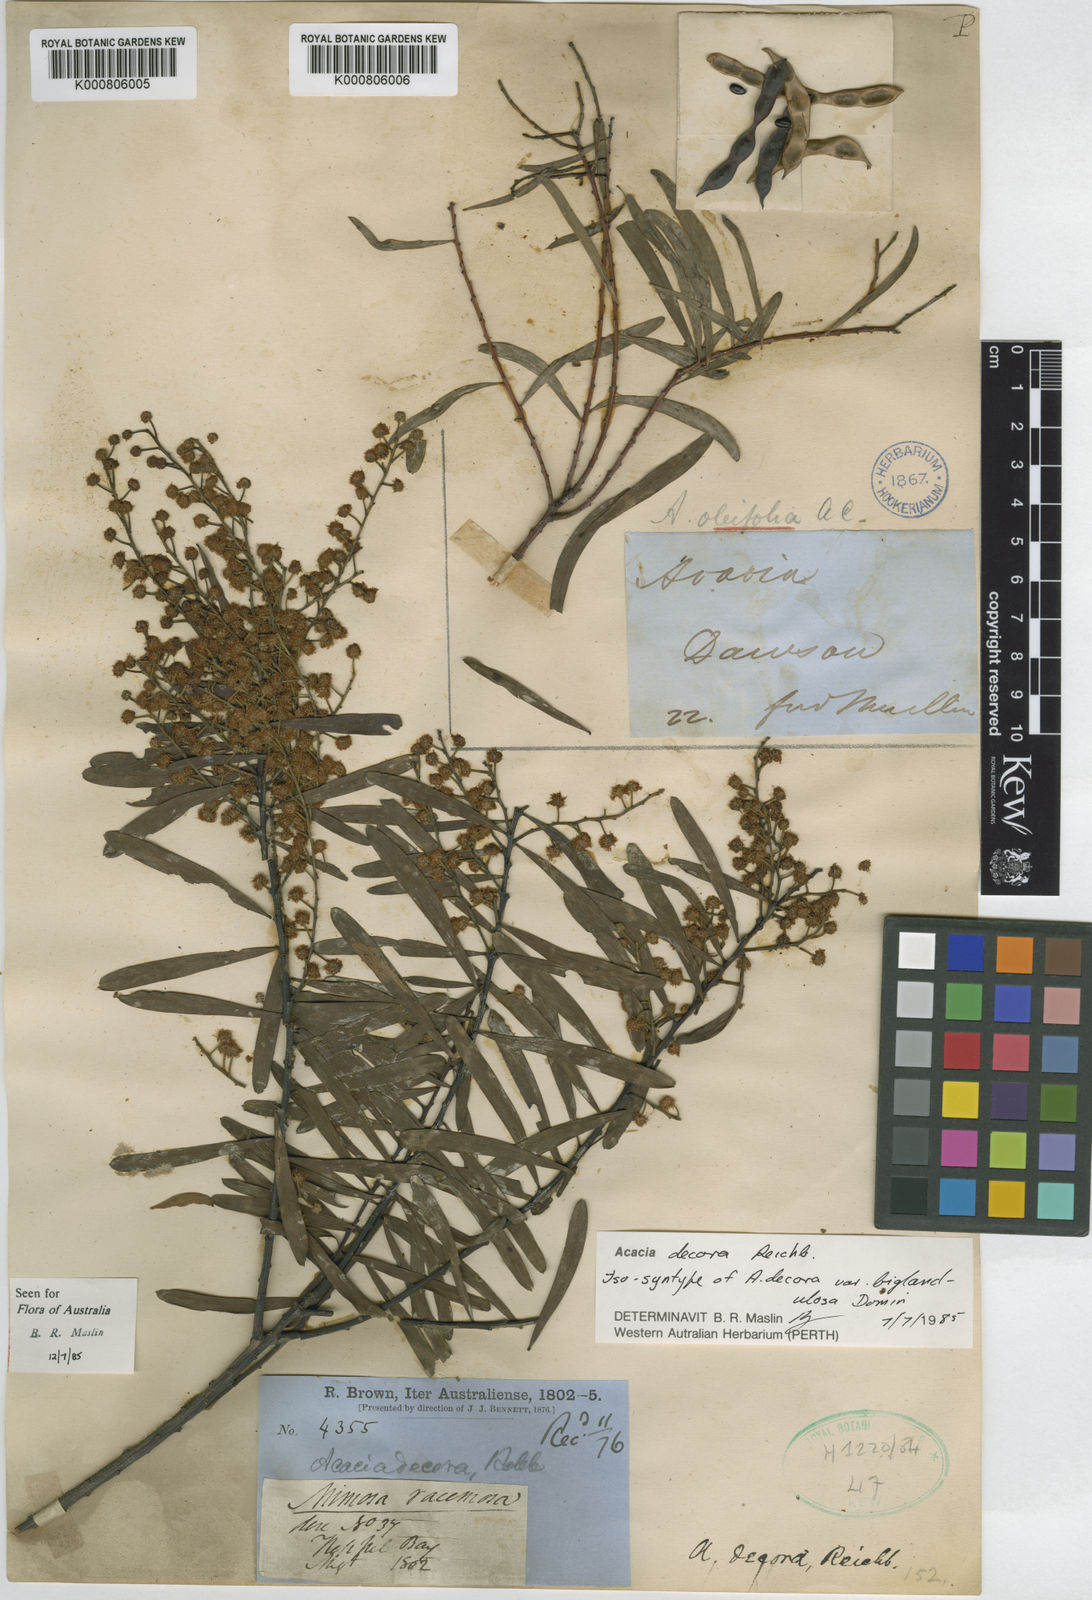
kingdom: Plantae
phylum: Tracheophyta
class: Magnoliopsida
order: Fabales
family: Fabaceae
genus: Acacia
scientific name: Acacia decora
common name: Showy wattle
